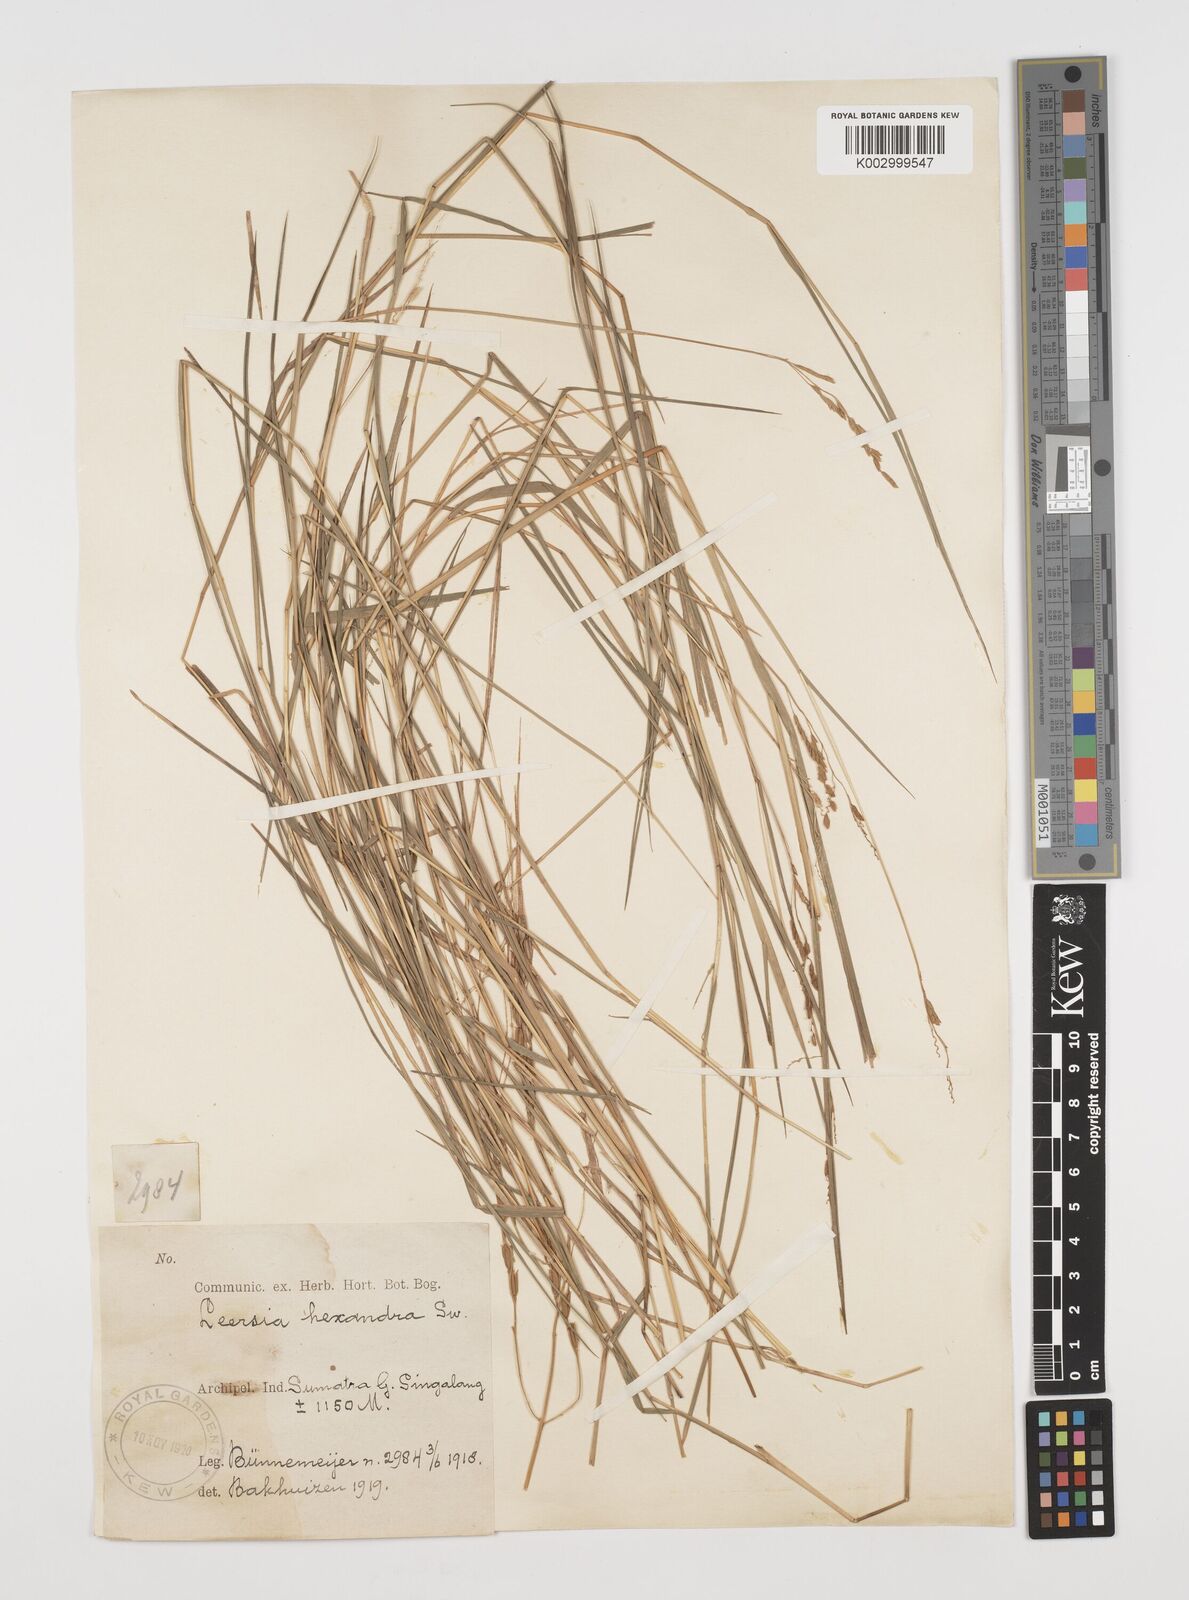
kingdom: Plantae
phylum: Tracheophyta
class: Liliopsida
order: Poales
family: Poaceae
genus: Leersia
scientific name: Leersia hexandra
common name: Southern cut grass
